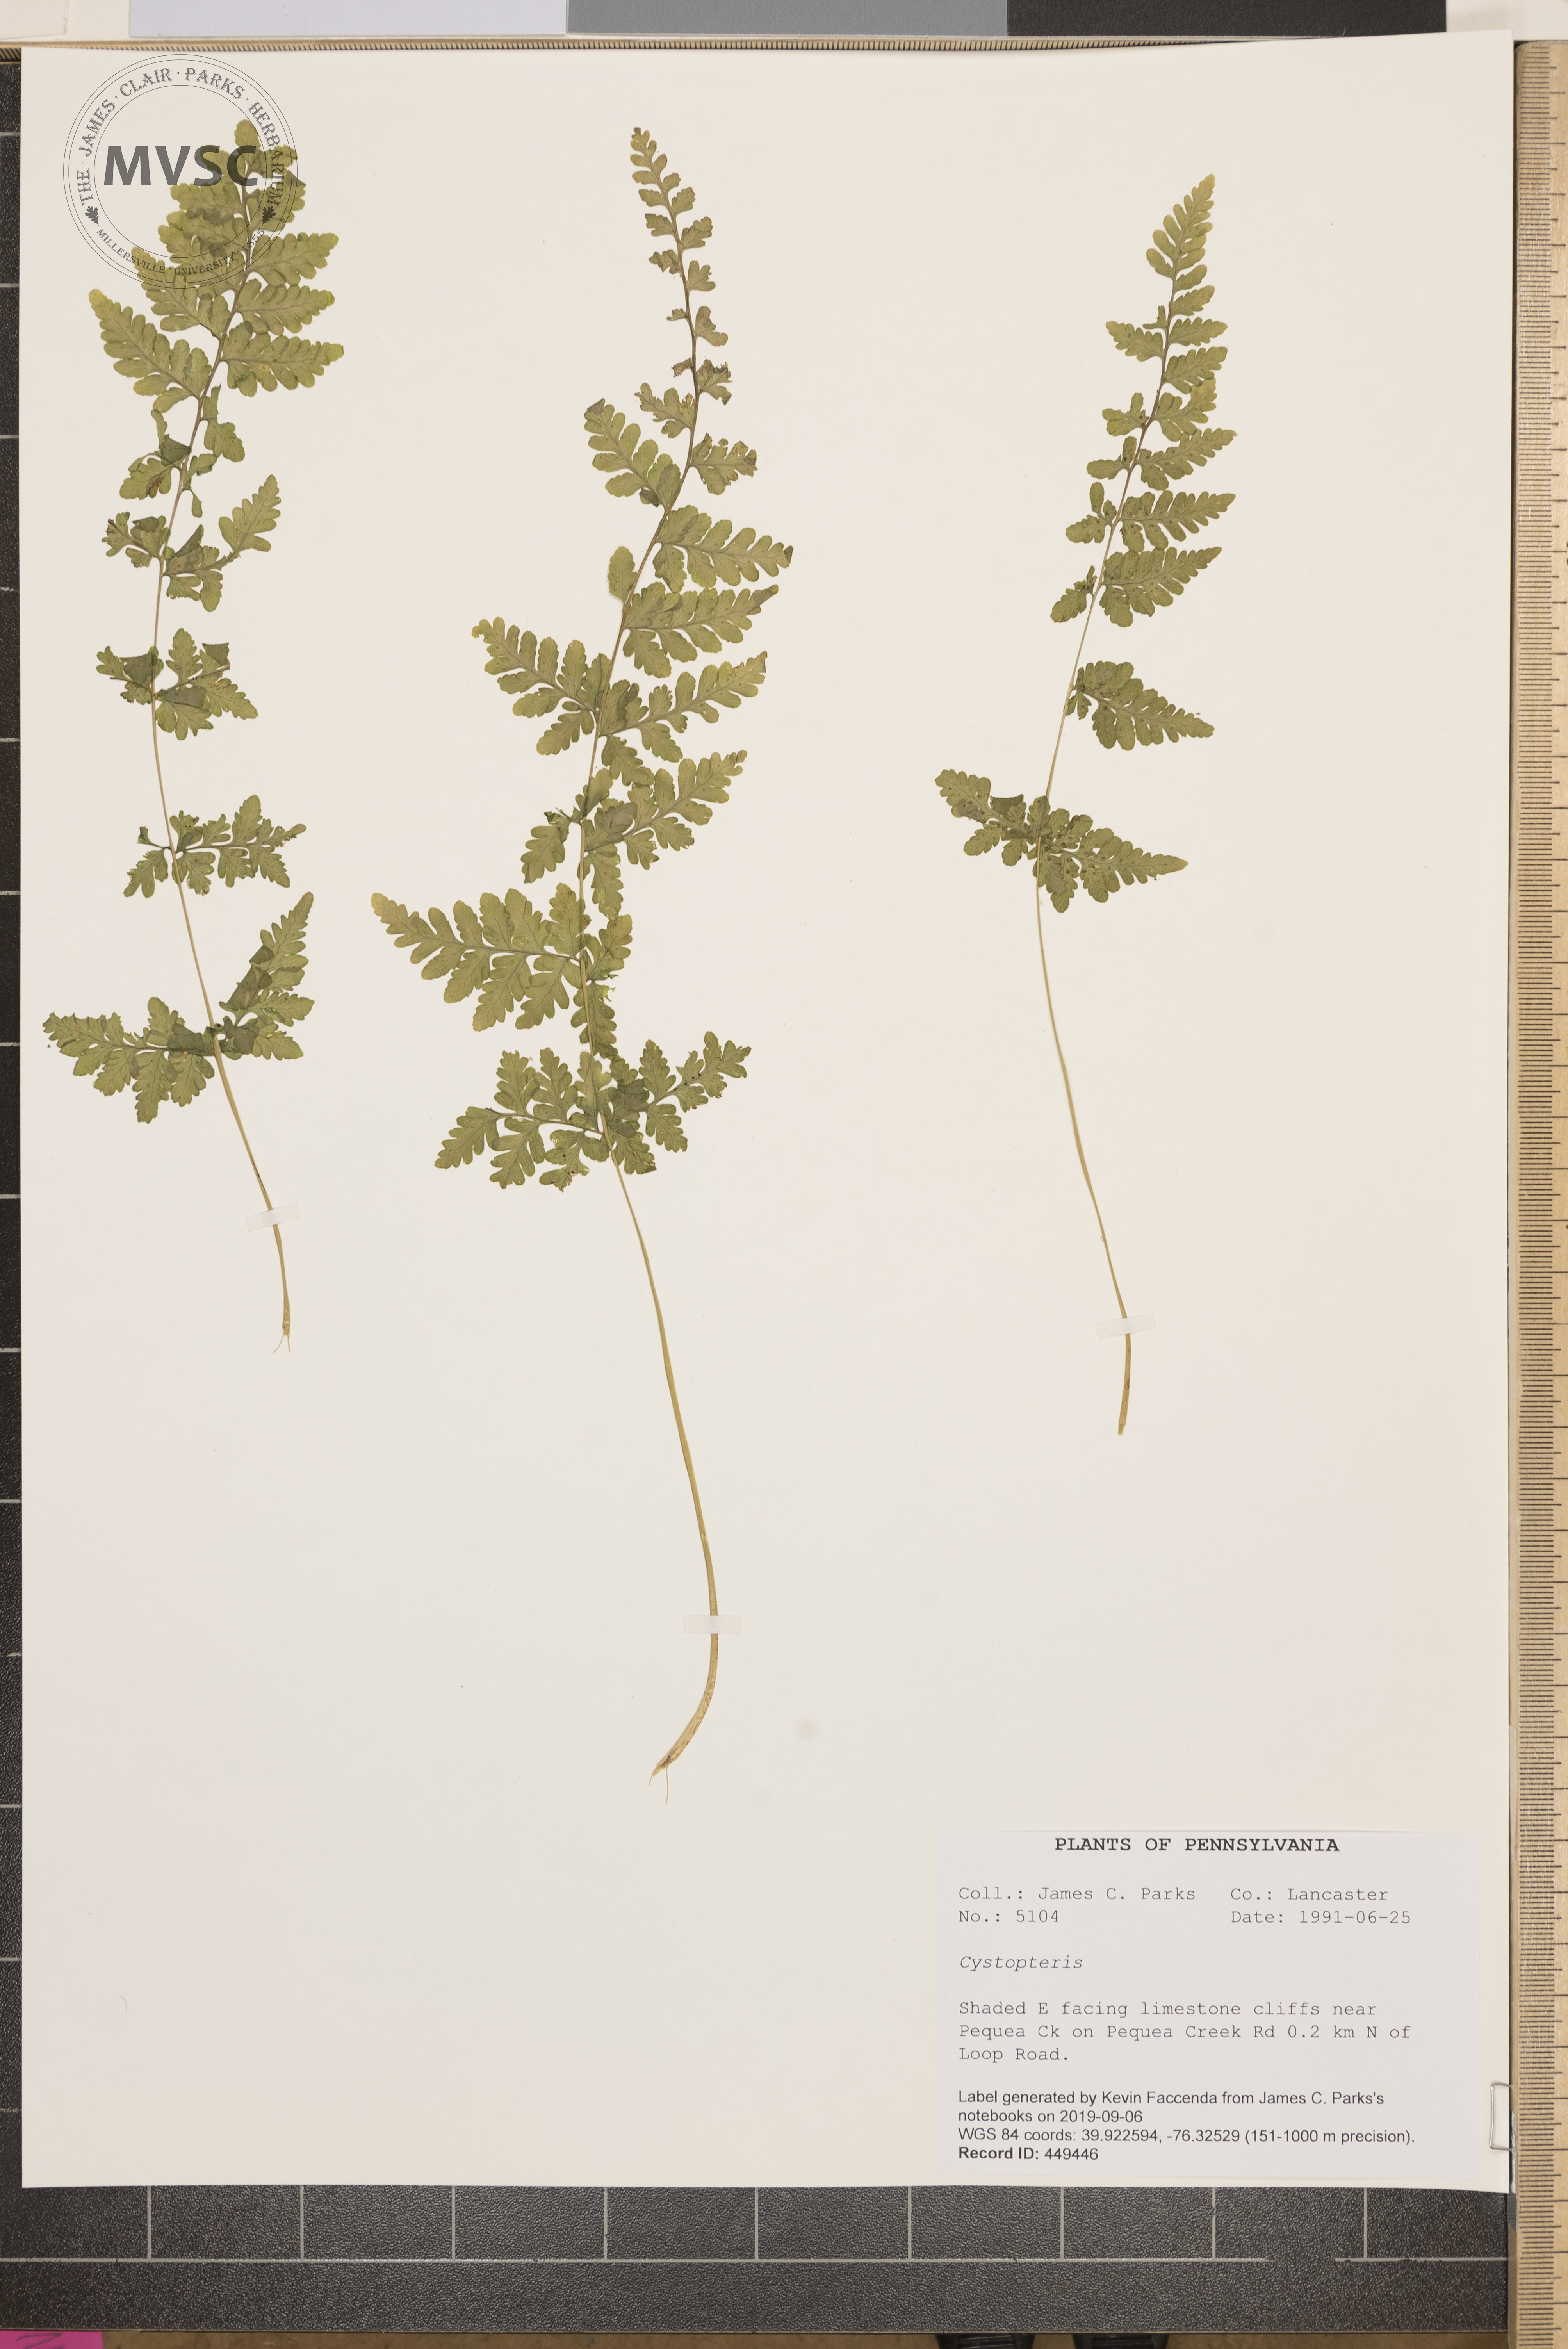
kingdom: Plantae
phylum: Tracheophyta
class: Polypodiopsida
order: Polypodiales
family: Cystopteridaceae
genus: Cystopteris
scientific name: Cystopteris
